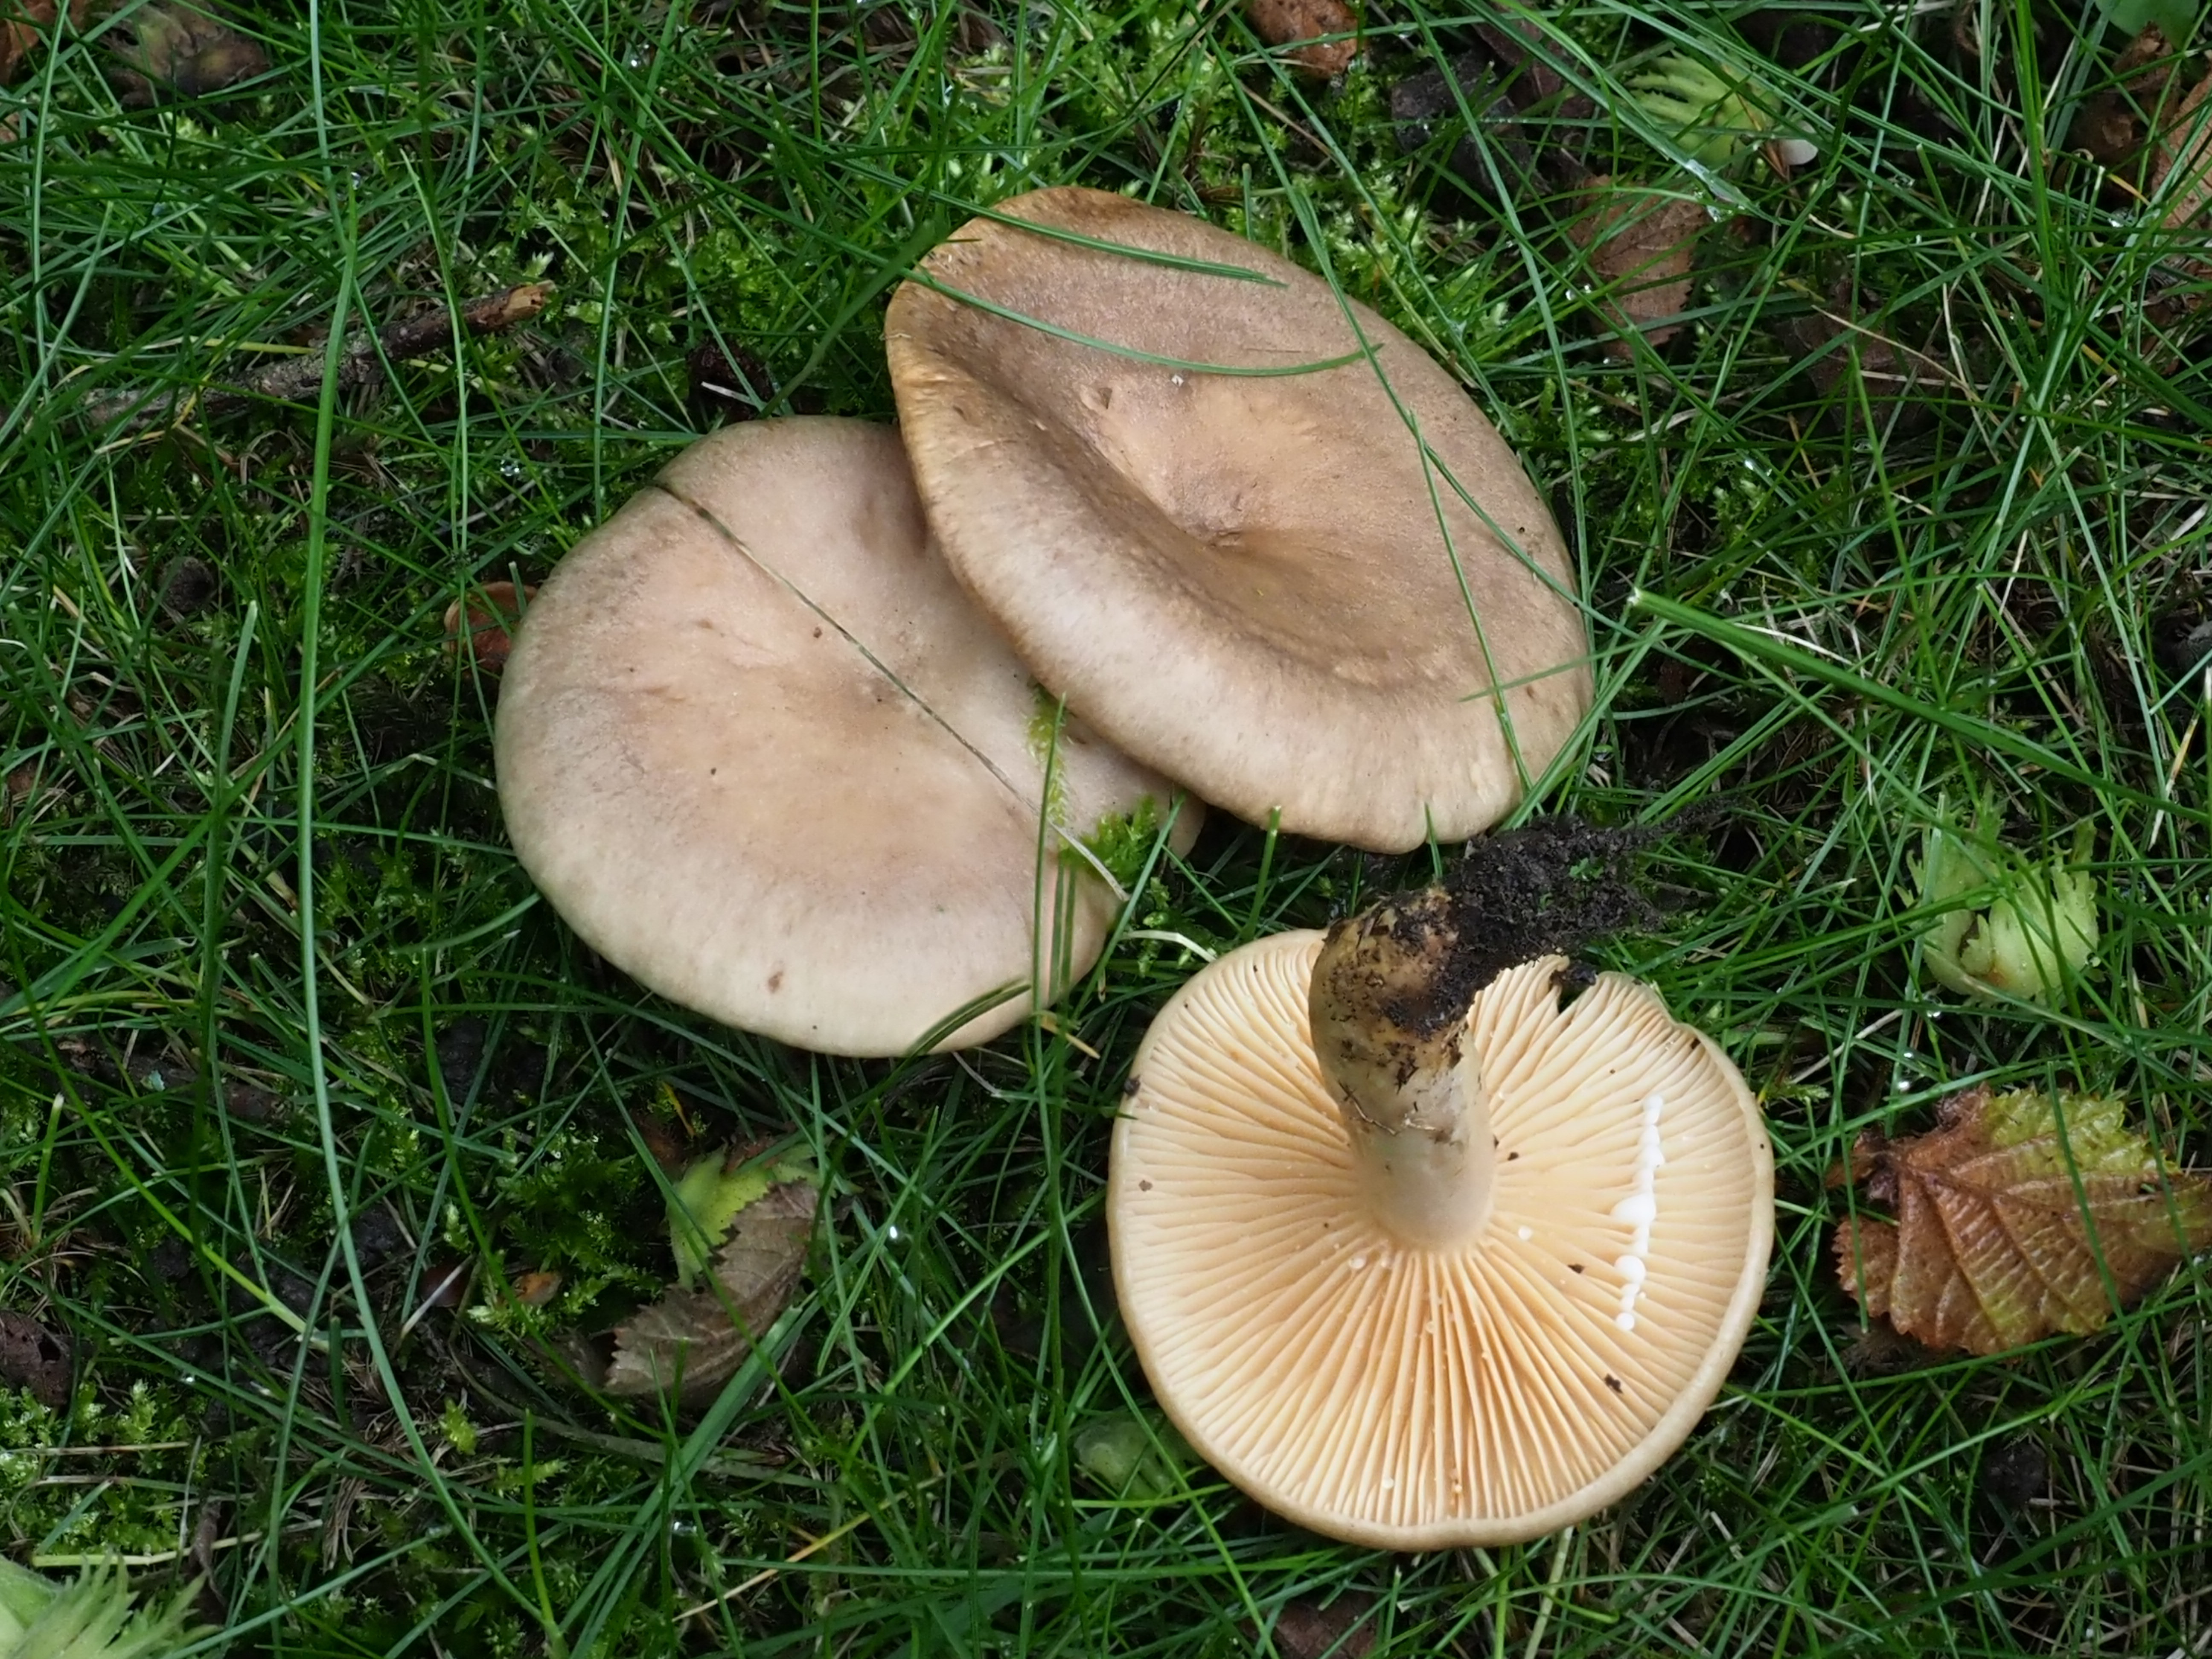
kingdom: Fungi
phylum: Basidiomycota
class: Agaricomycetes
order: Russulales
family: Russulaceae
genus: Lactarius
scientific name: Lactarius pyrogalus
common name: Fiery milkcap
